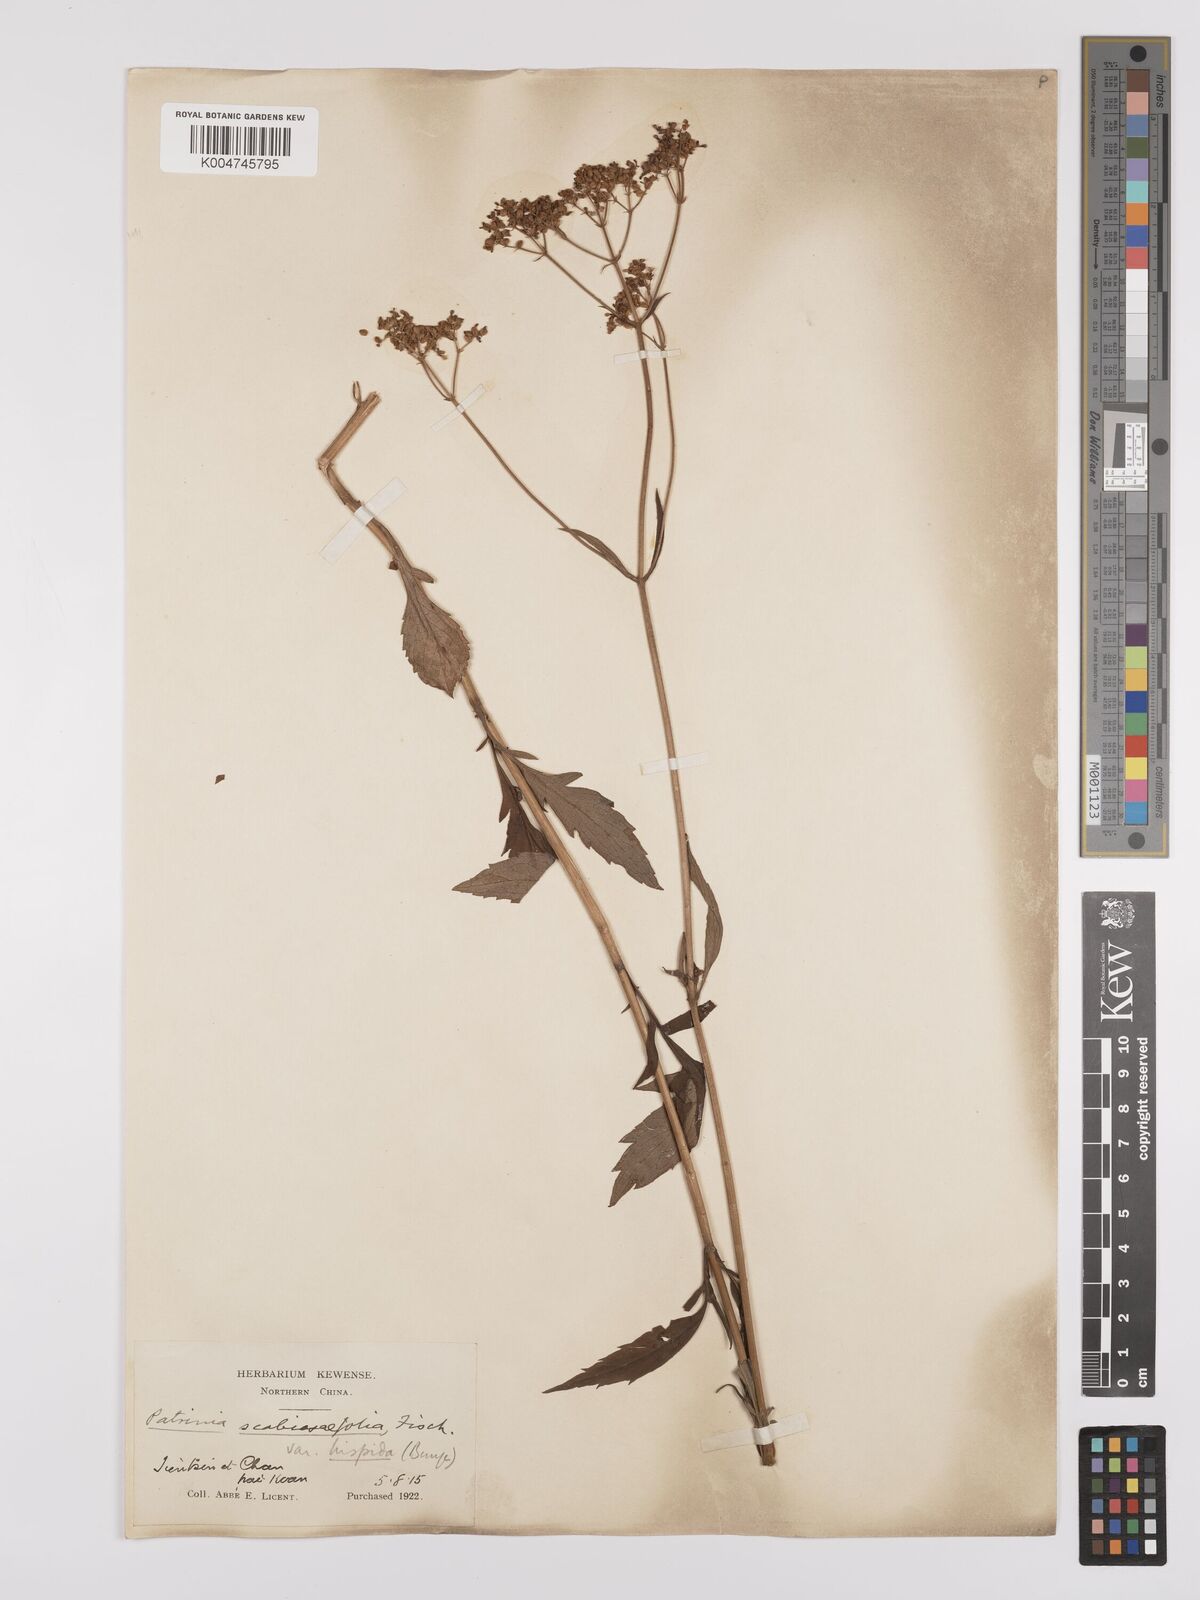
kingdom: Plantae
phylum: Tracheophyta
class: Magnoliopsida
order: Dipsacales
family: Caprifoliaceae
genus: Patrinia
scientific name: Patrinia scabiosifolia
